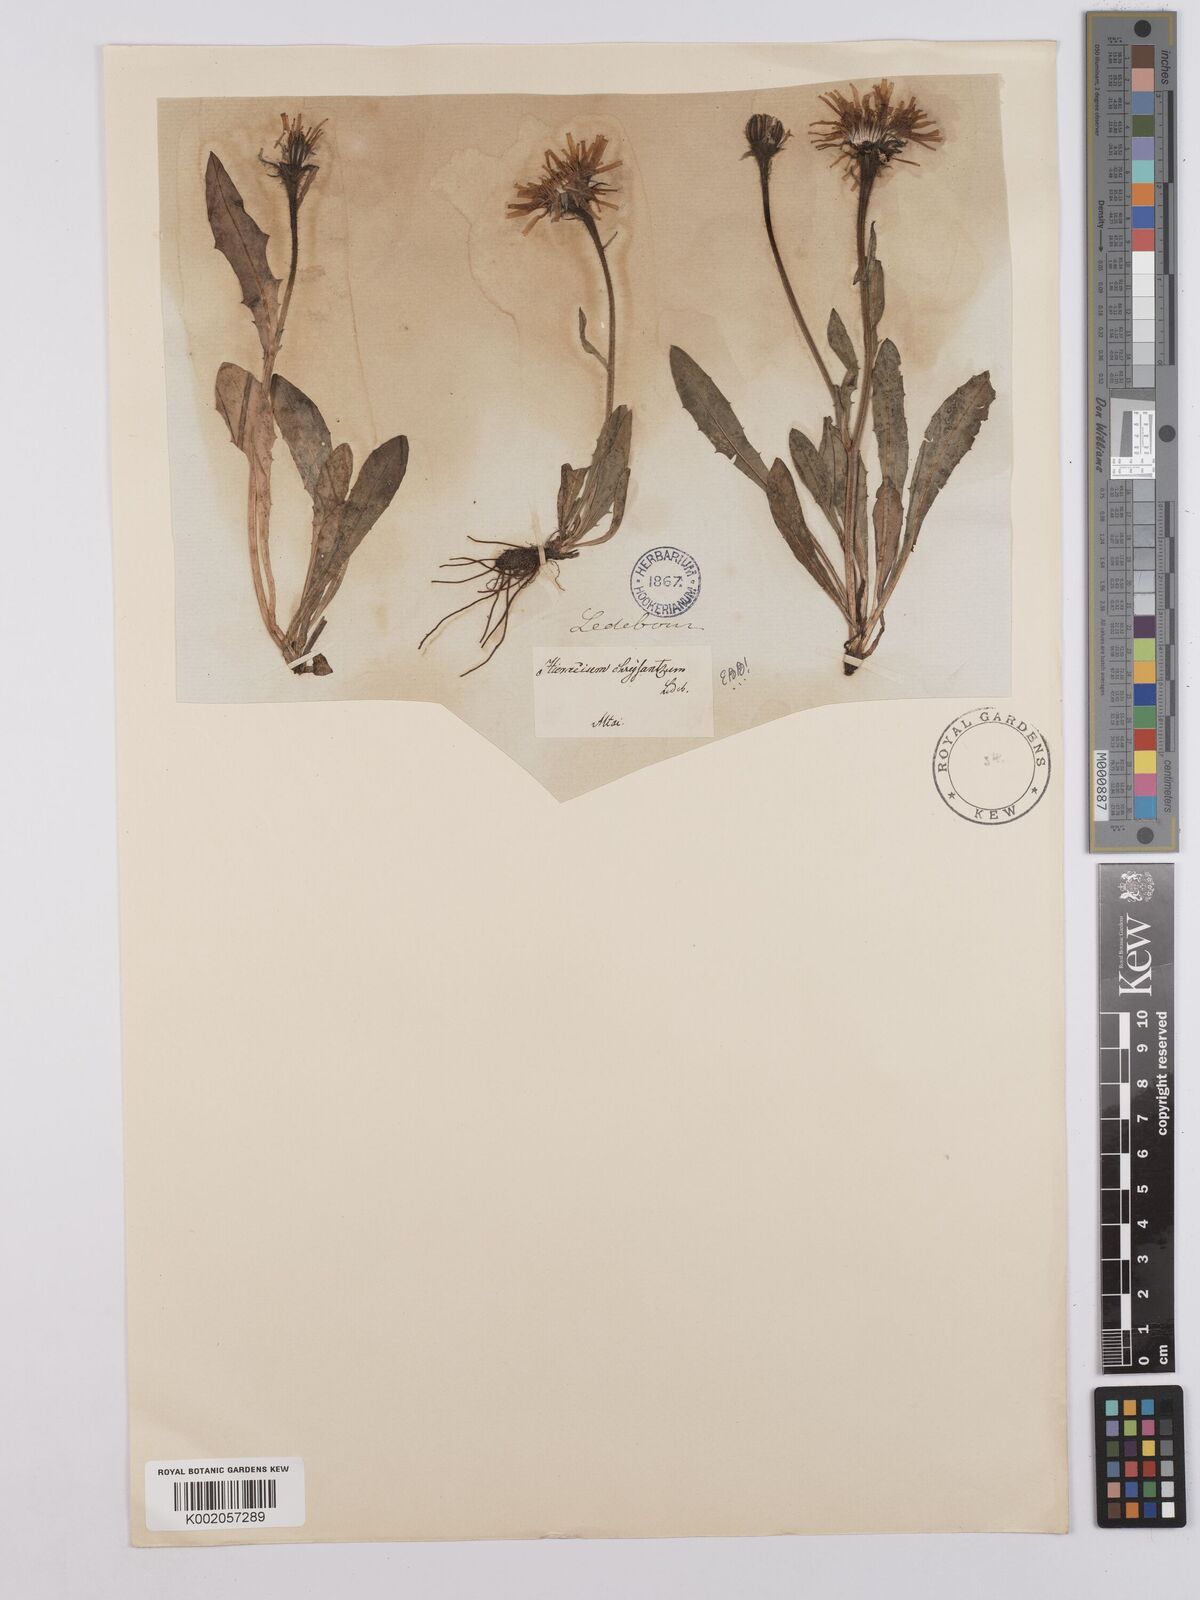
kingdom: Plantae
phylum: Tracheophyta
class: Magnoliopsida
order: Asterales
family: Asteraceae
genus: Crepis
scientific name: Crepis chrysantha
